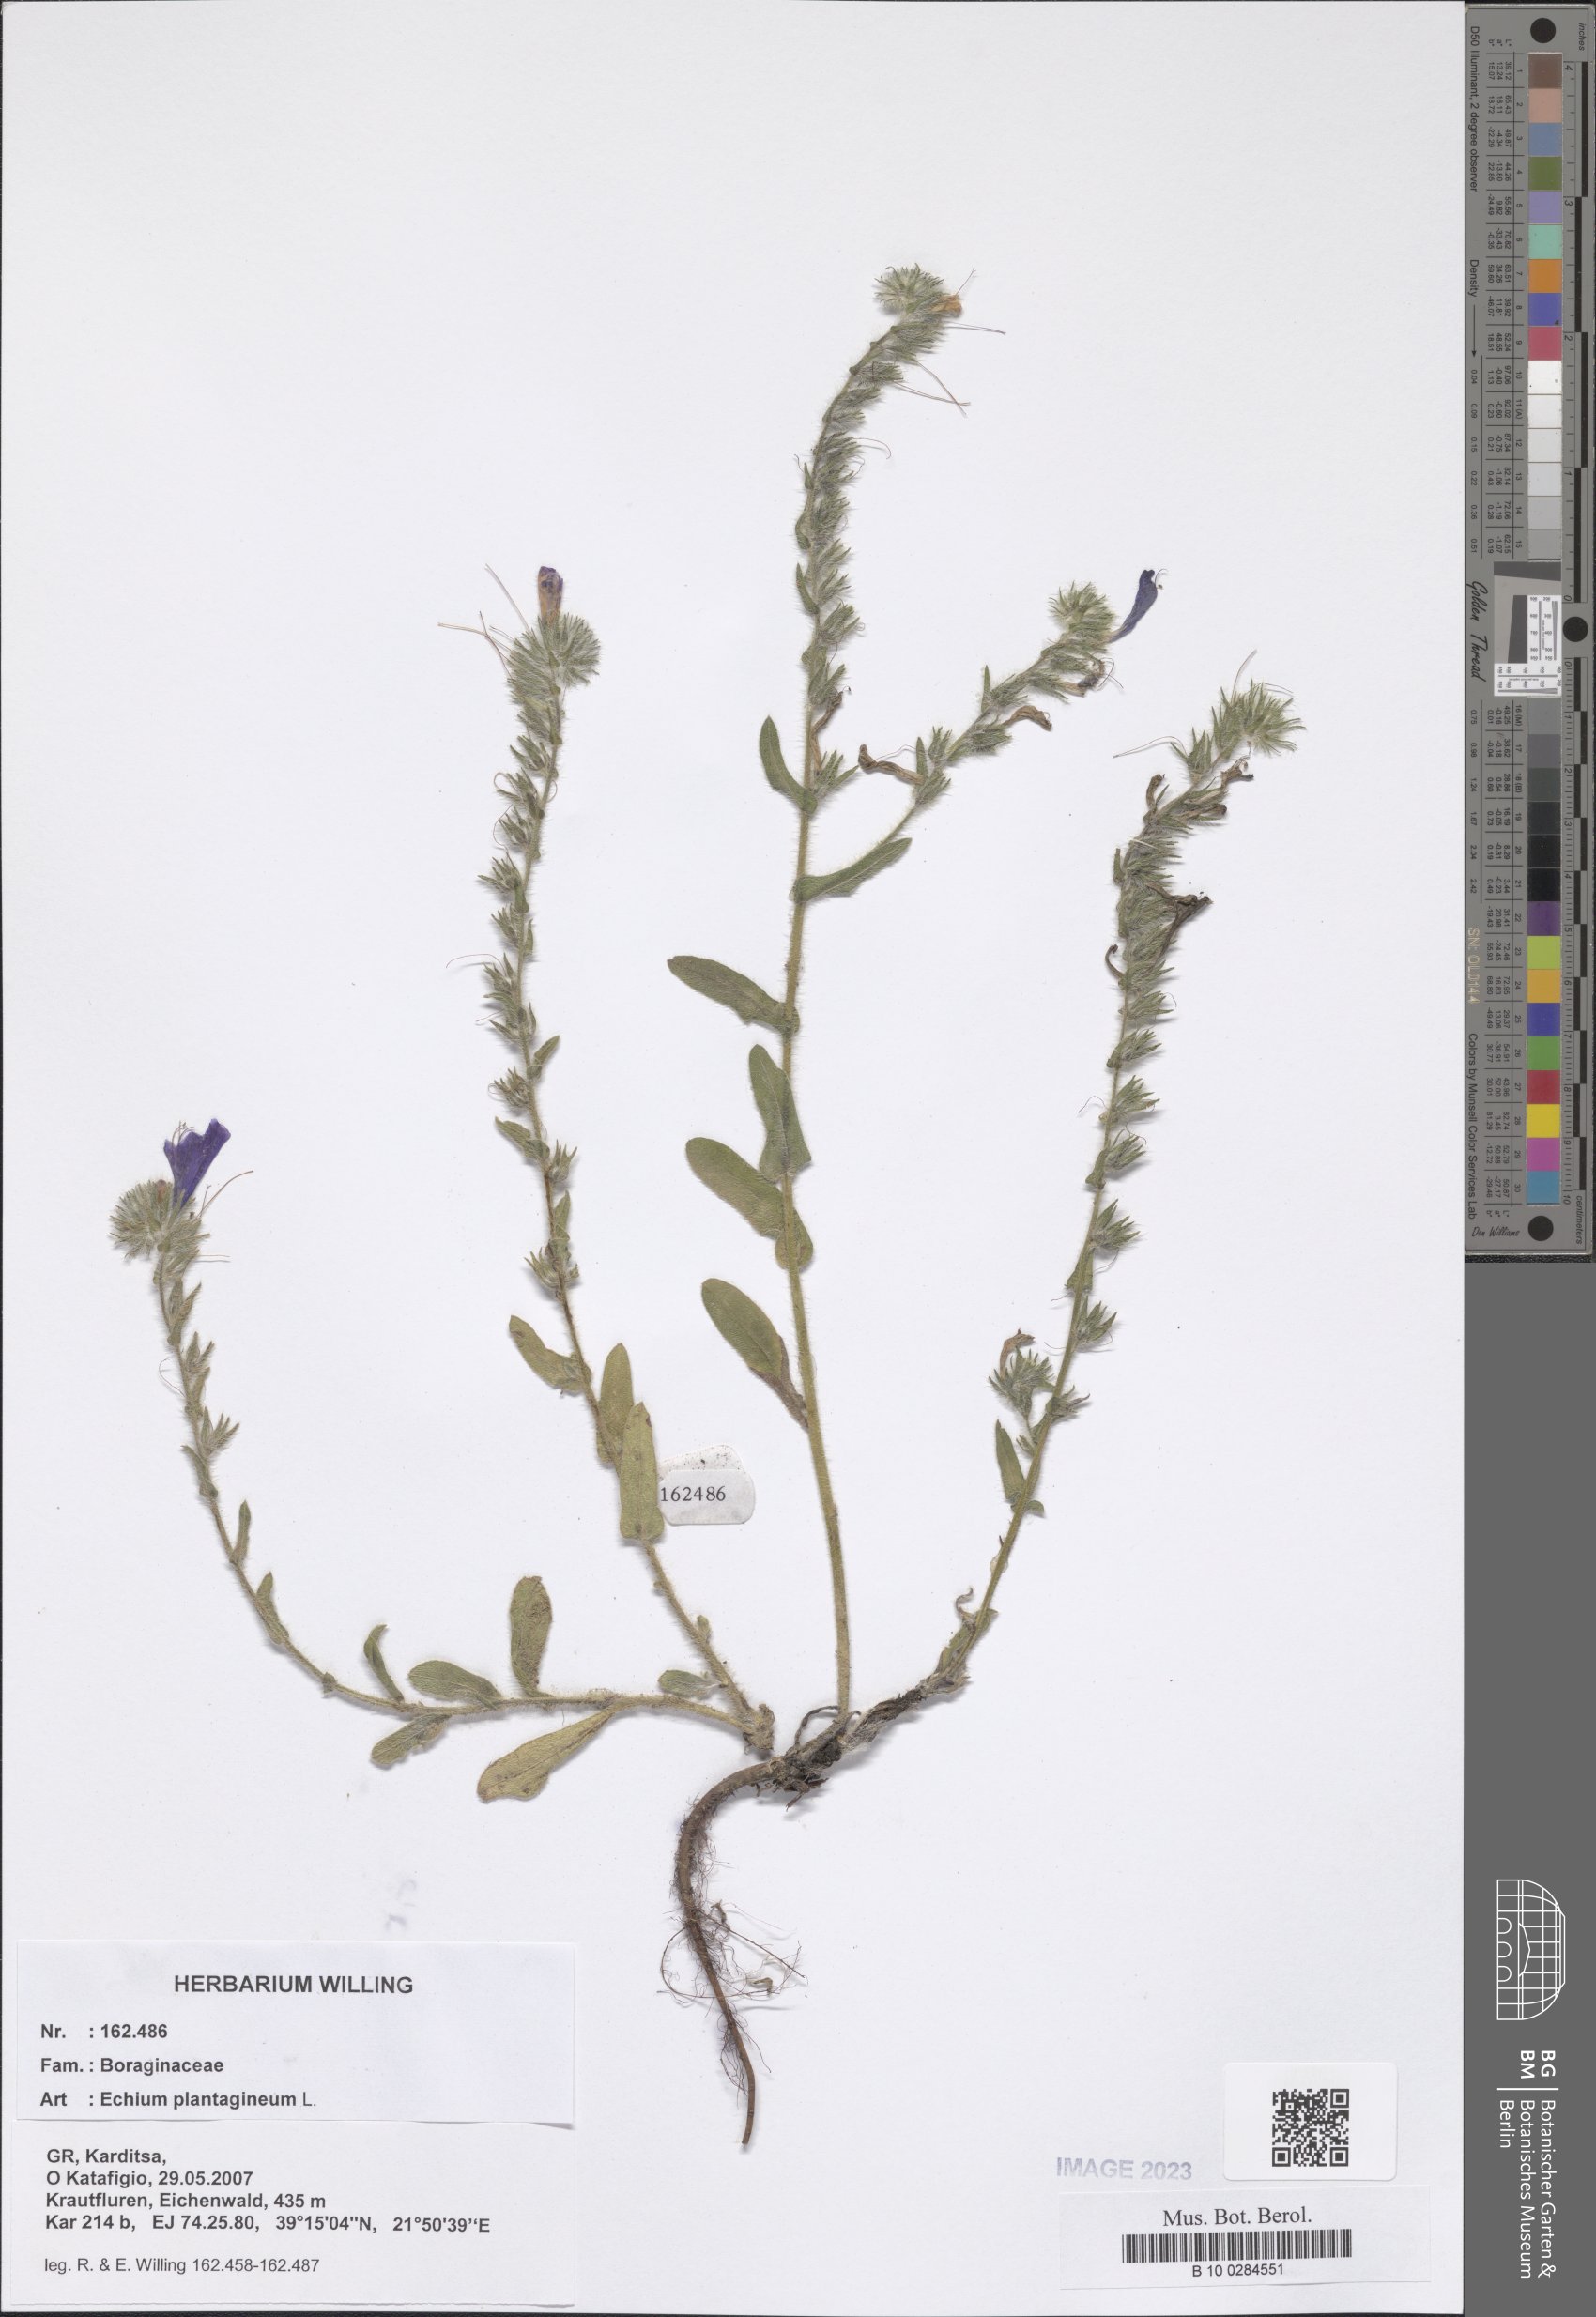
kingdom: Plantae
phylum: Tracheophyta
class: Magnoliopsida
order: Boraginales
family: Boraginaceae
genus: Echium
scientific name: Echium plantagineum
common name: Purple viper's-bugloss
